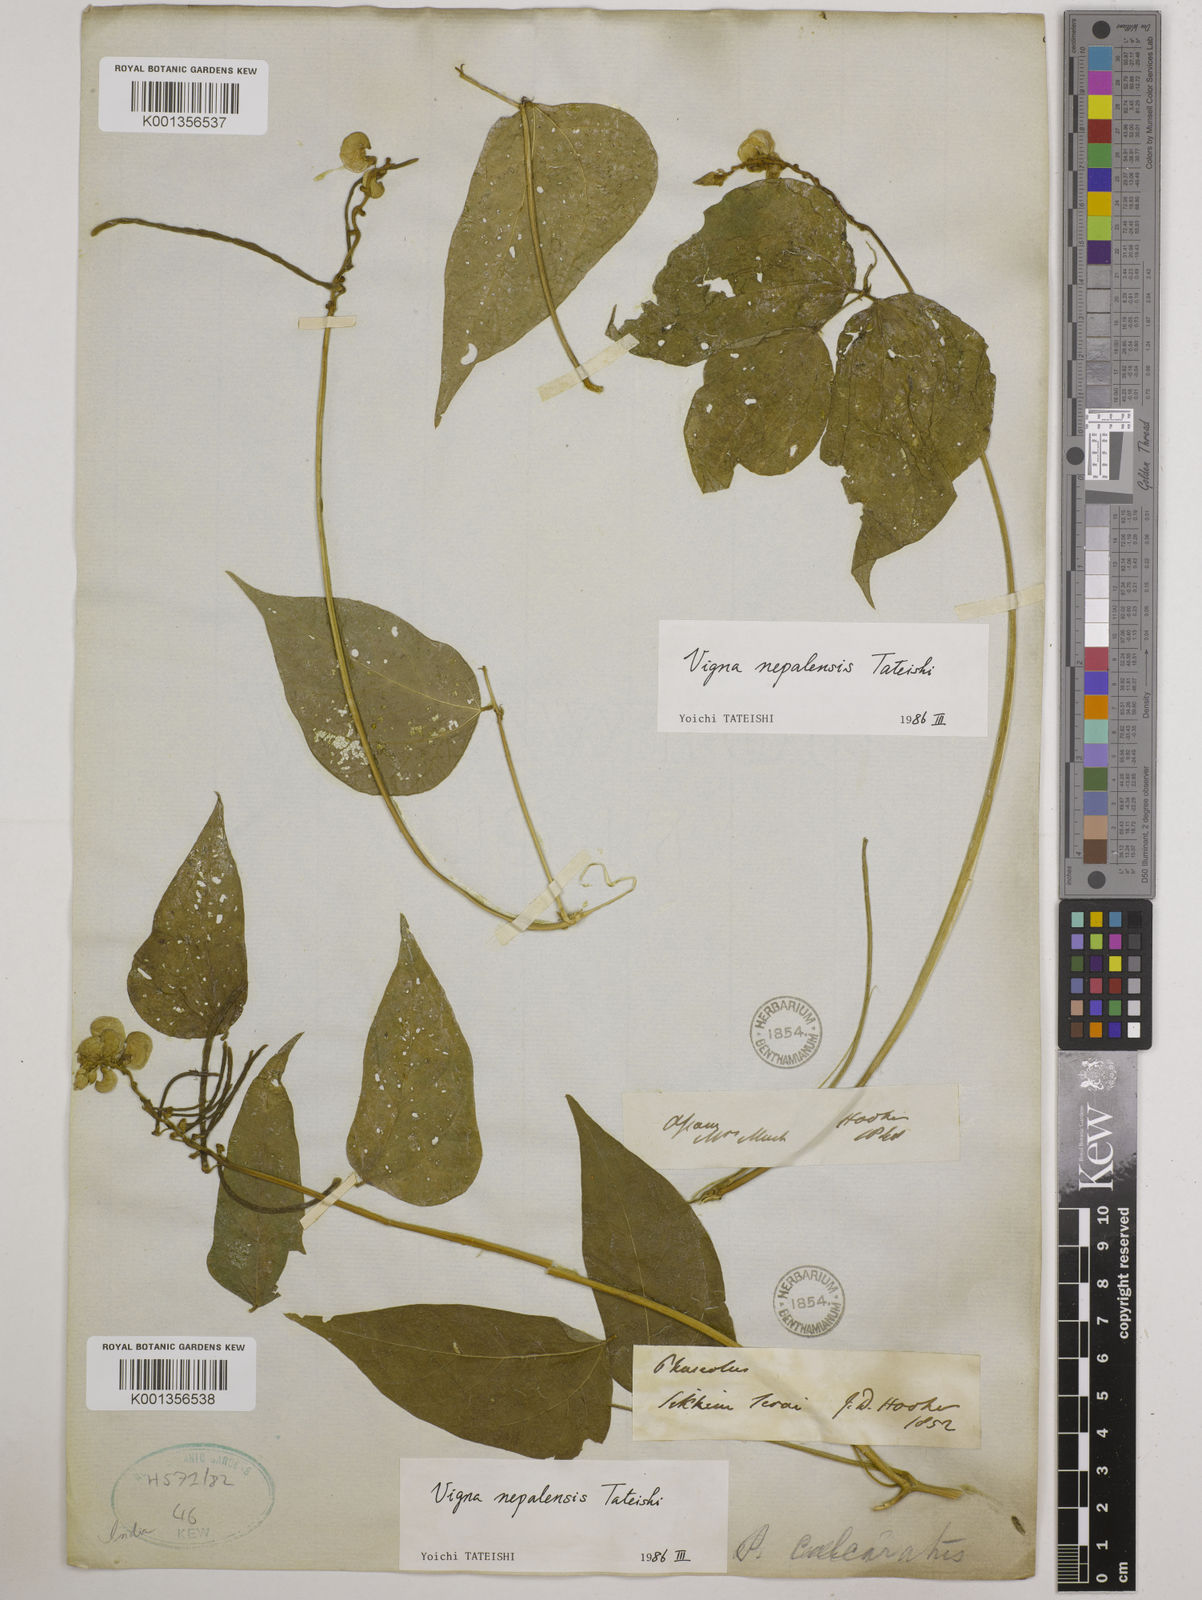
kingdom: Plantae
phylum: Tracheophyta
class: Magnoliopsida
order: Fabales
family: Fabaceae
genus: Vigna
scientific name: Vigna
